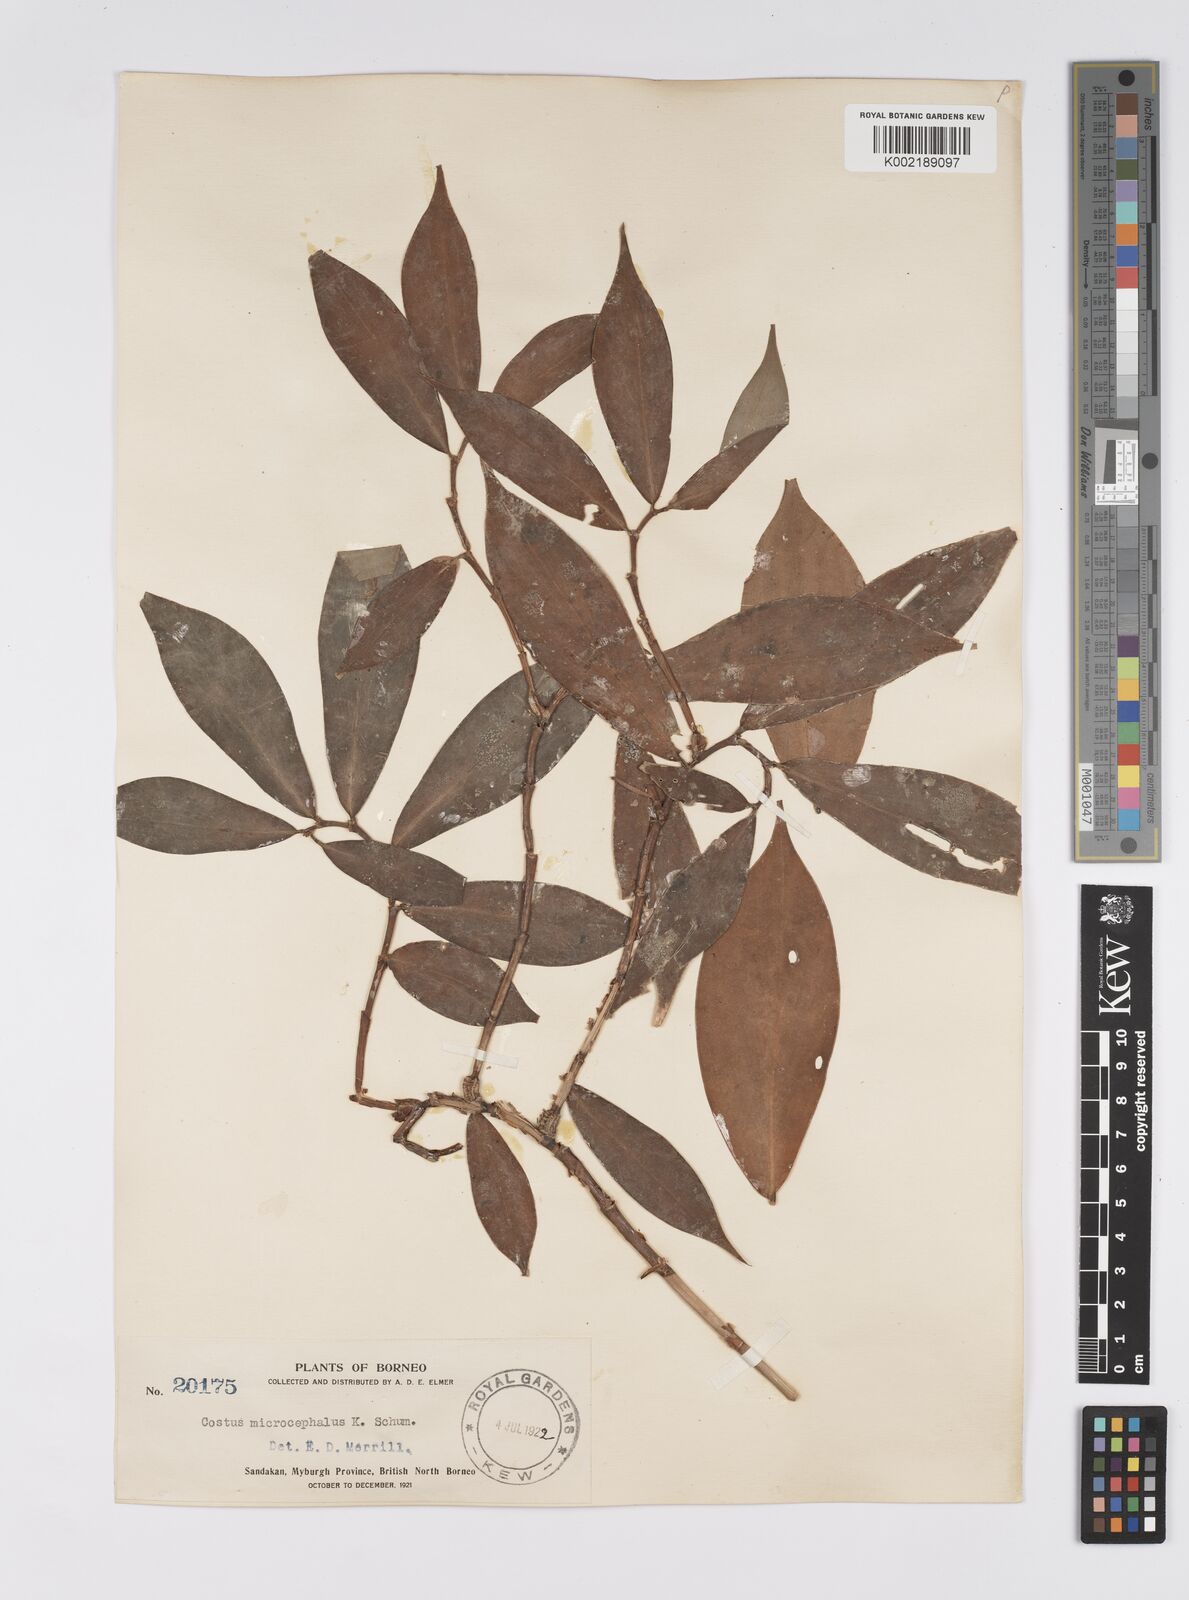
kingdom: Plantae
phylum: Tracheophyta
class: Liliopsida
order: Zingiberales
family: Costaceae
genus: Costus
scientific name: Costus microcephalus
